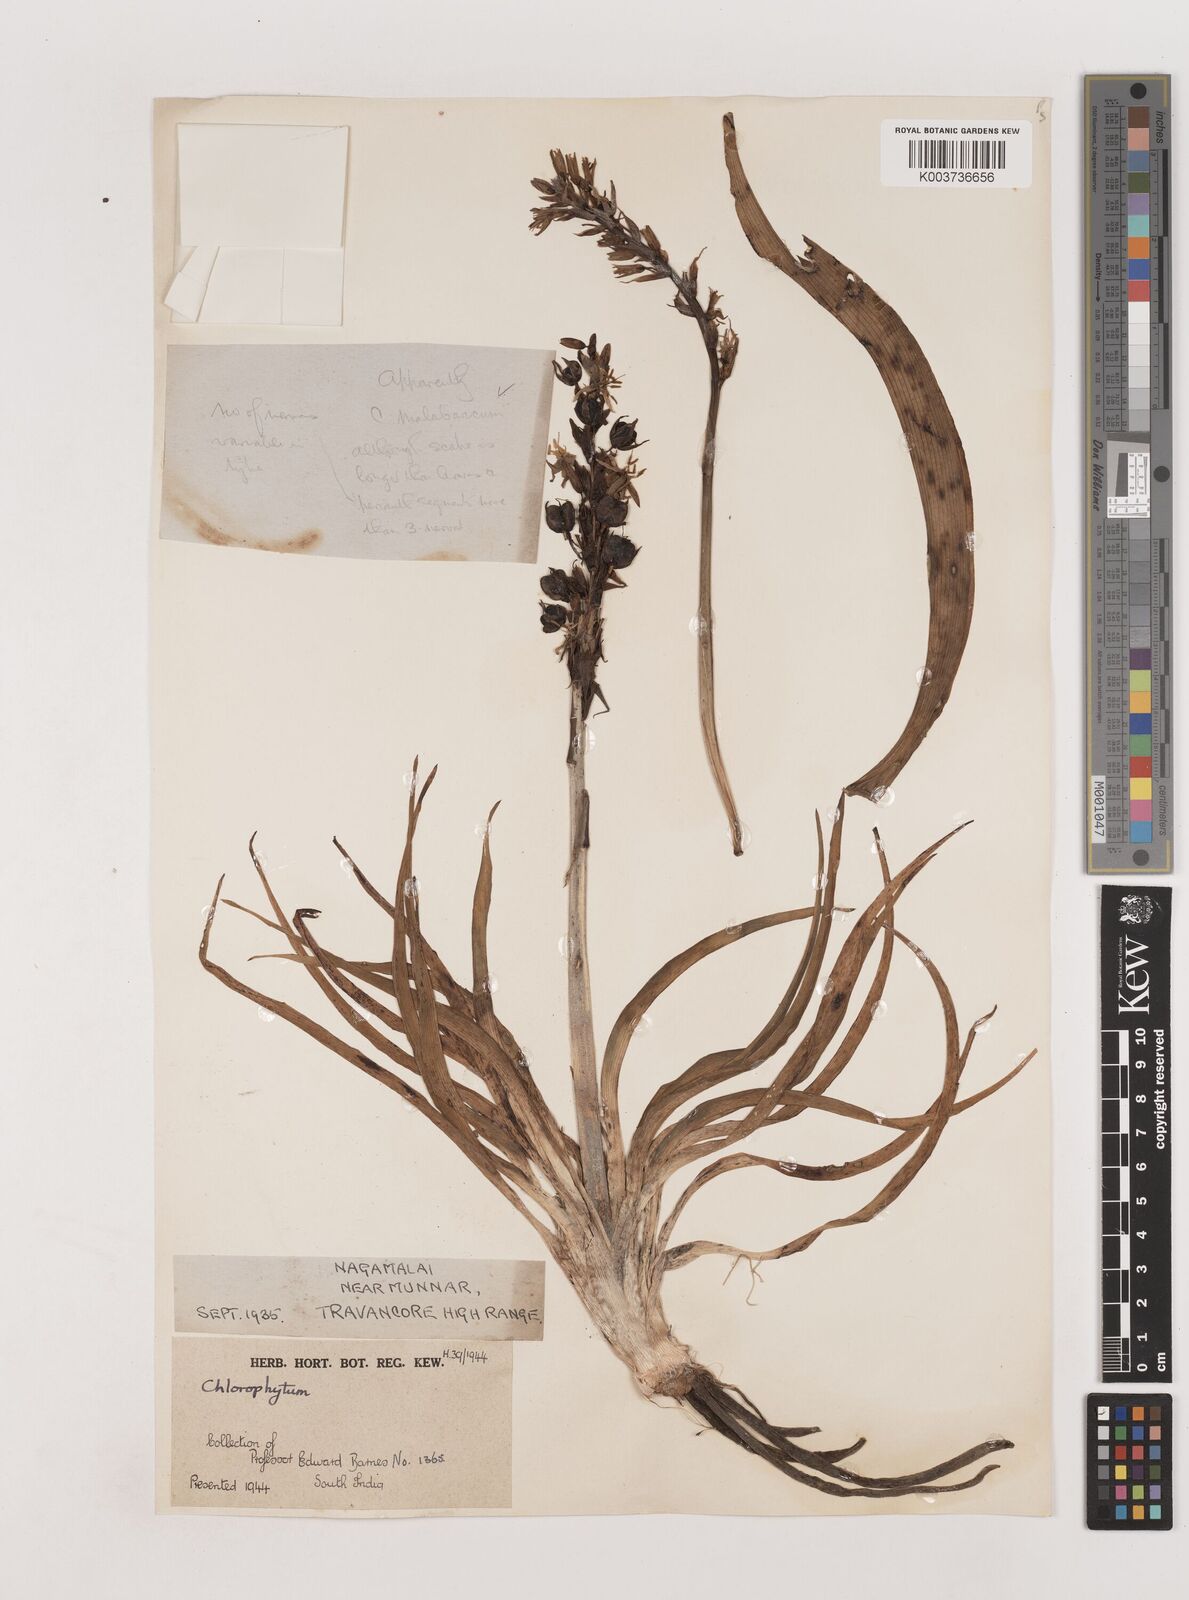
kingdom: Plantae
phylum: Tracheophyta
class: Liliopsida
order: Asparagales
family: Asparagaceae
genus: Chlorophytum
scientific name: Chlorophytum
